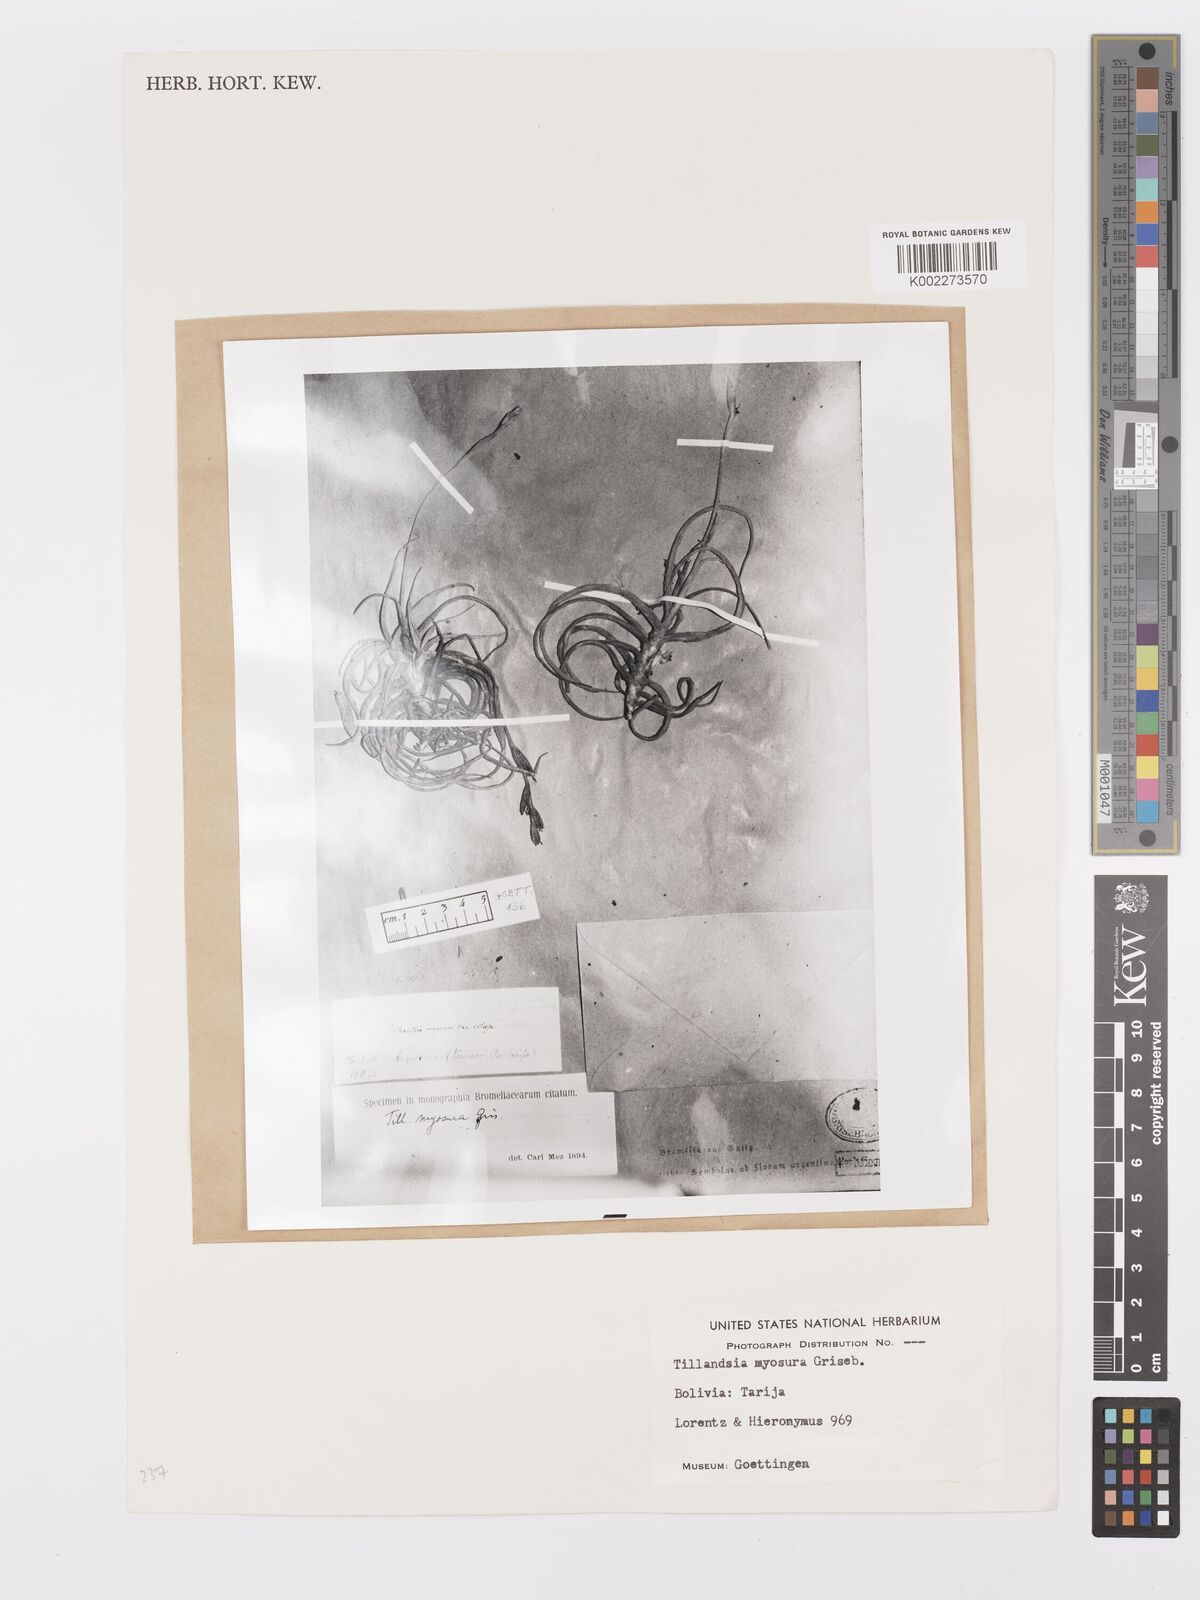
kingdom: Plantae
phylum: Tracheophyta
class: Liliopsida
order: Poales
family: Bromeliaceae
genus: Tillandsia
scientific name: Tillandsia myosura
